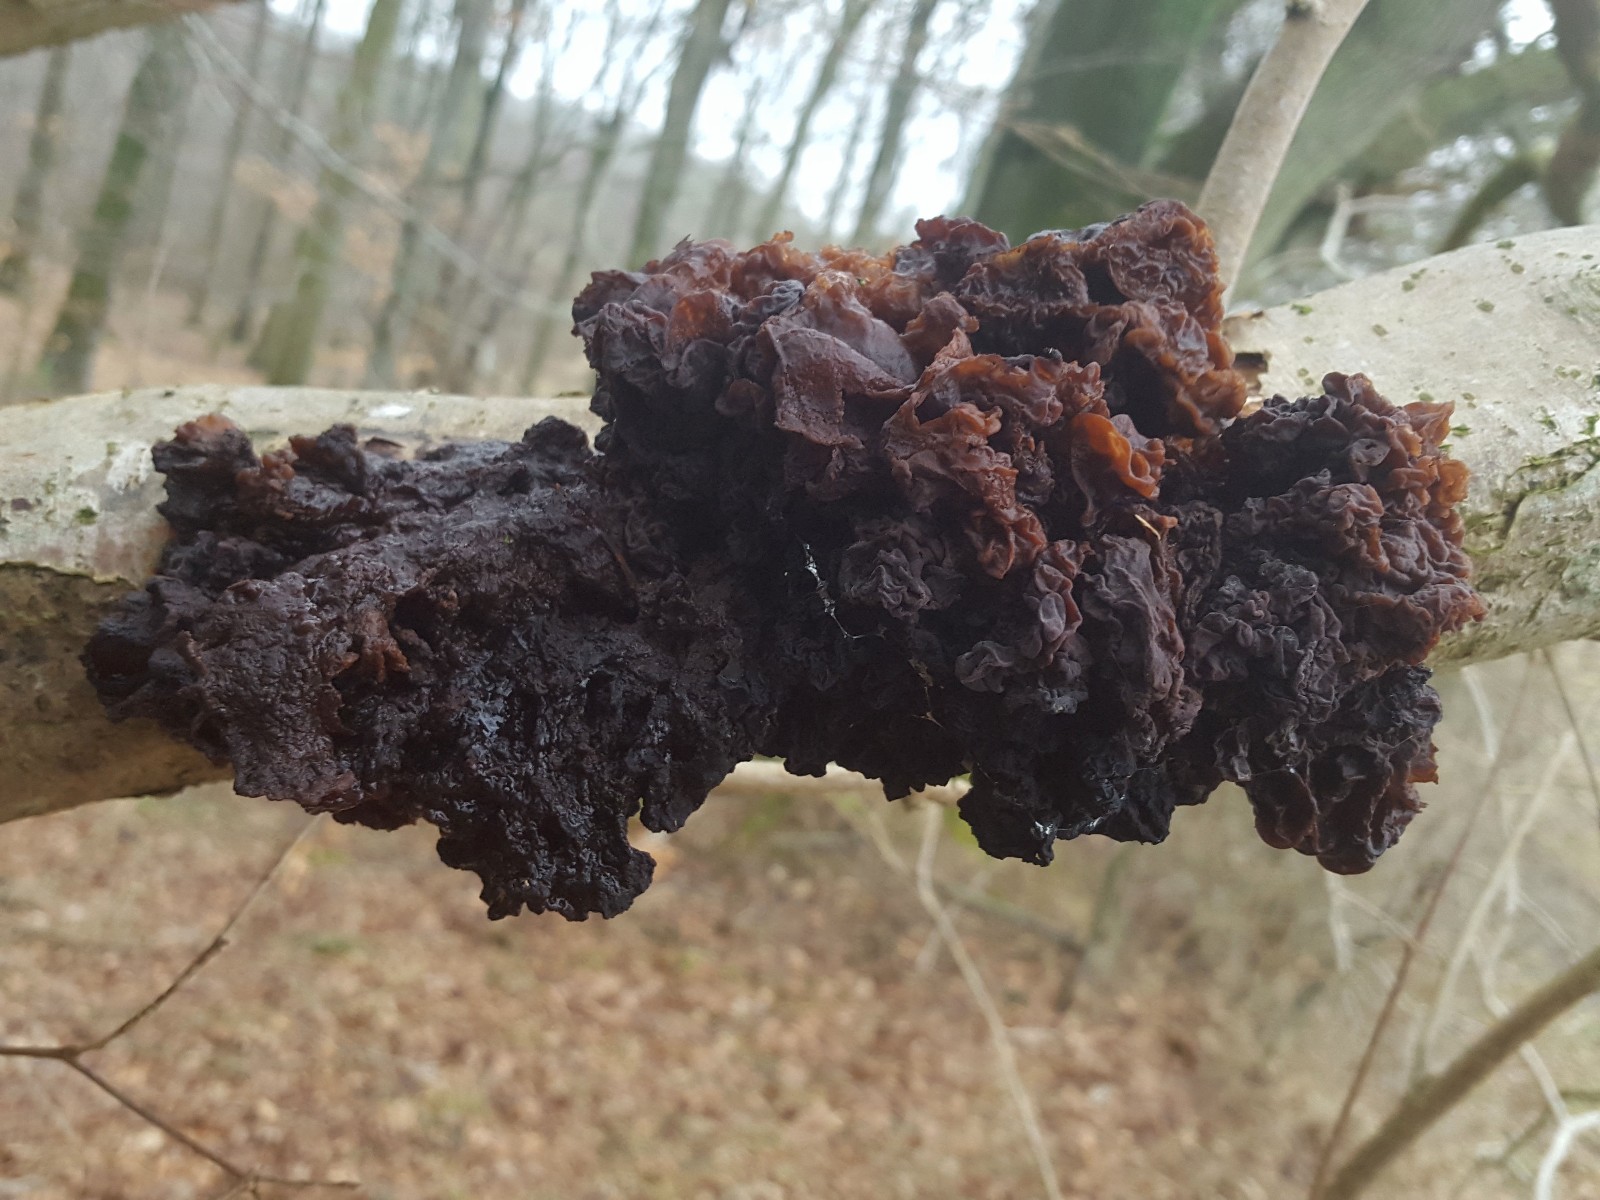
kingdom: Fungi
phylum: Basidiomycota
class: Tremellomycetes
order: Tremellales
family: Tremellaceae
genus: Phaeotremella
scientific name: Phaeotremella frondosa
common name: kæmpe-bævresvamp
